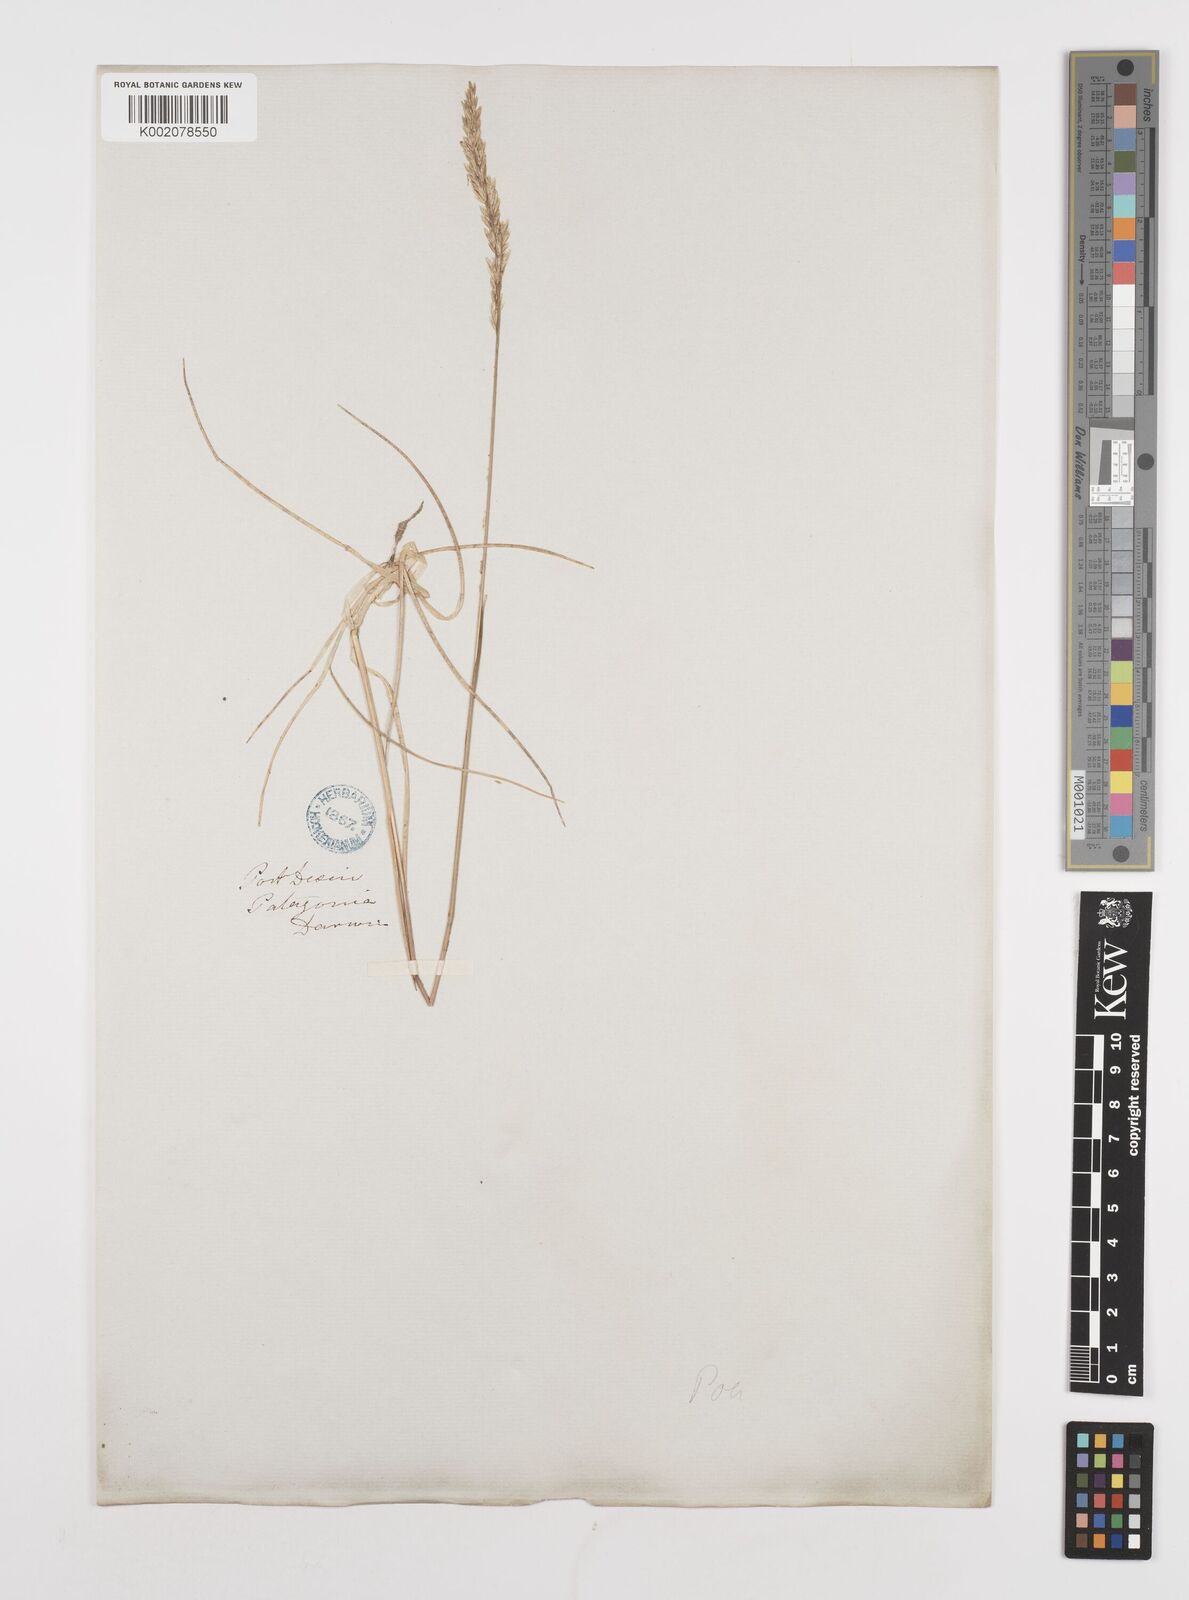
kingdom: Plantae
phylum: Tracheophyta
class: Liliopsida
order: Poales
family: Poaceae
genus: Poa
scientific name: Poa lanuginosa
